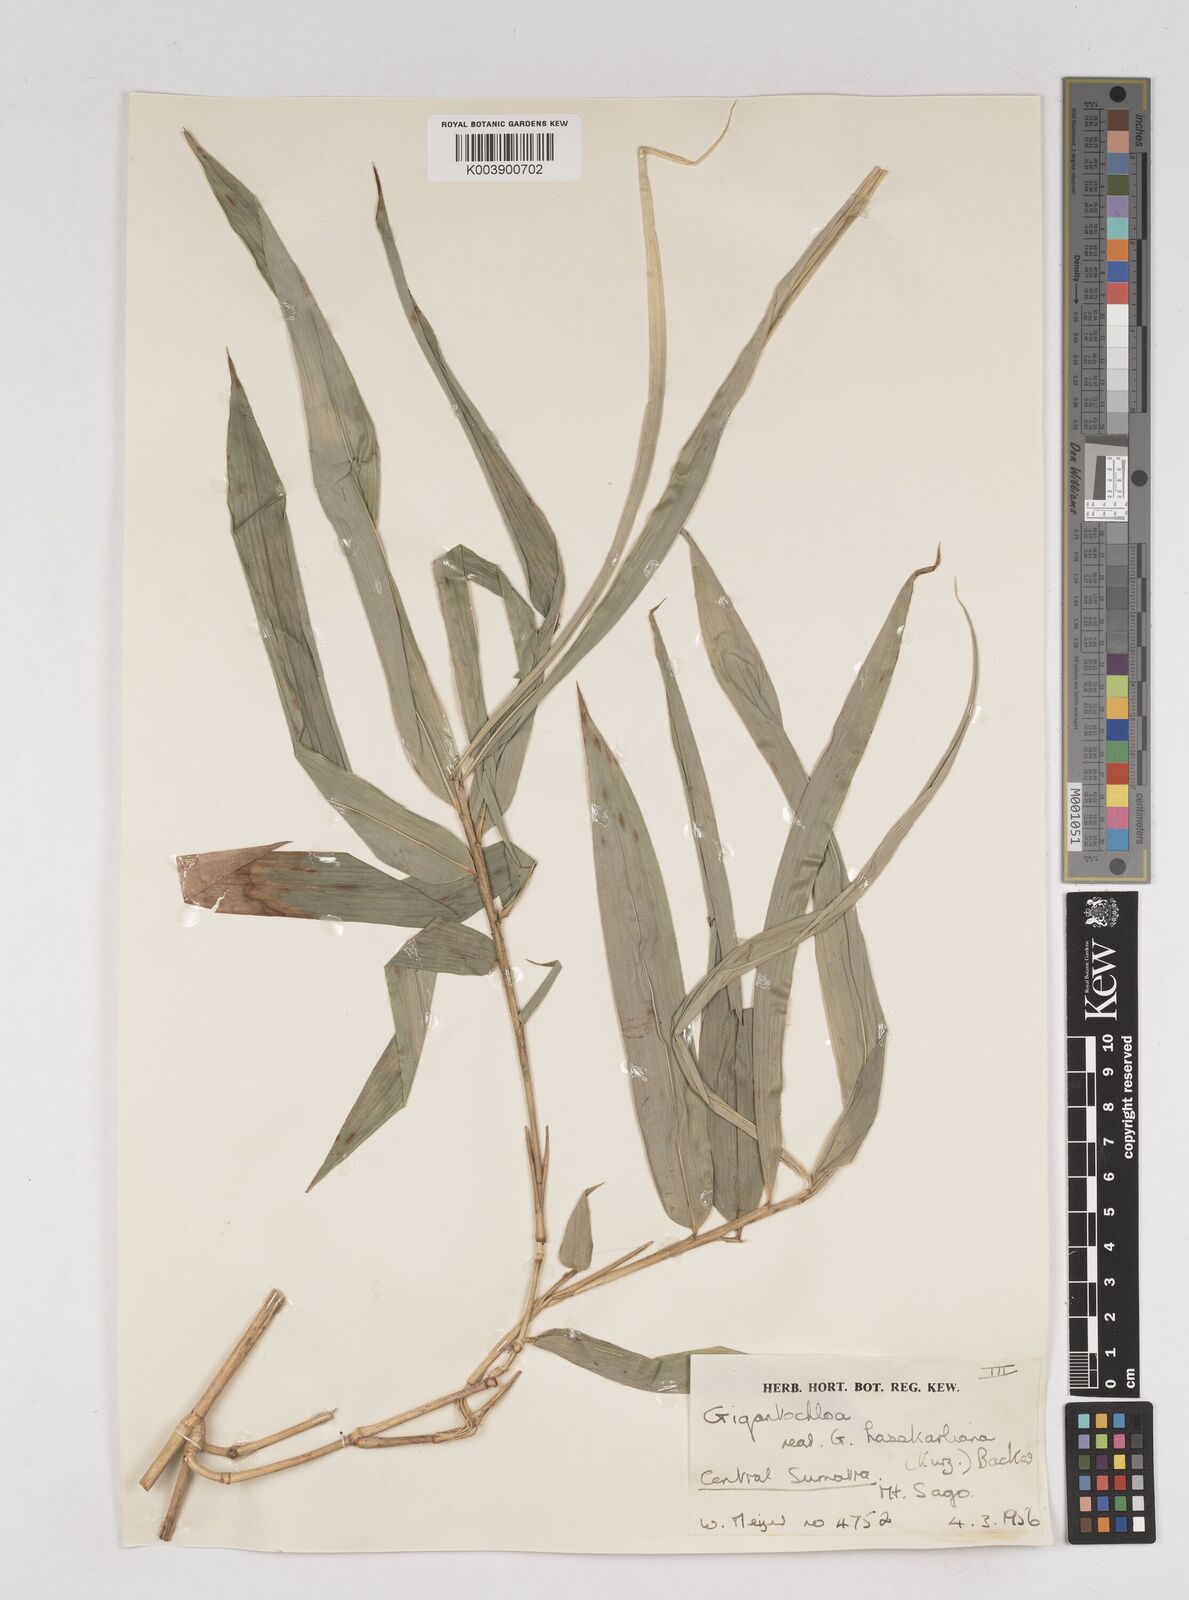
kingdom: Plantae
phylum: Tracheophyta
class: Liliopsida
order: Poales
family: Poaceae
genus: Gigantochloa
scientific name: Gigantochloa
